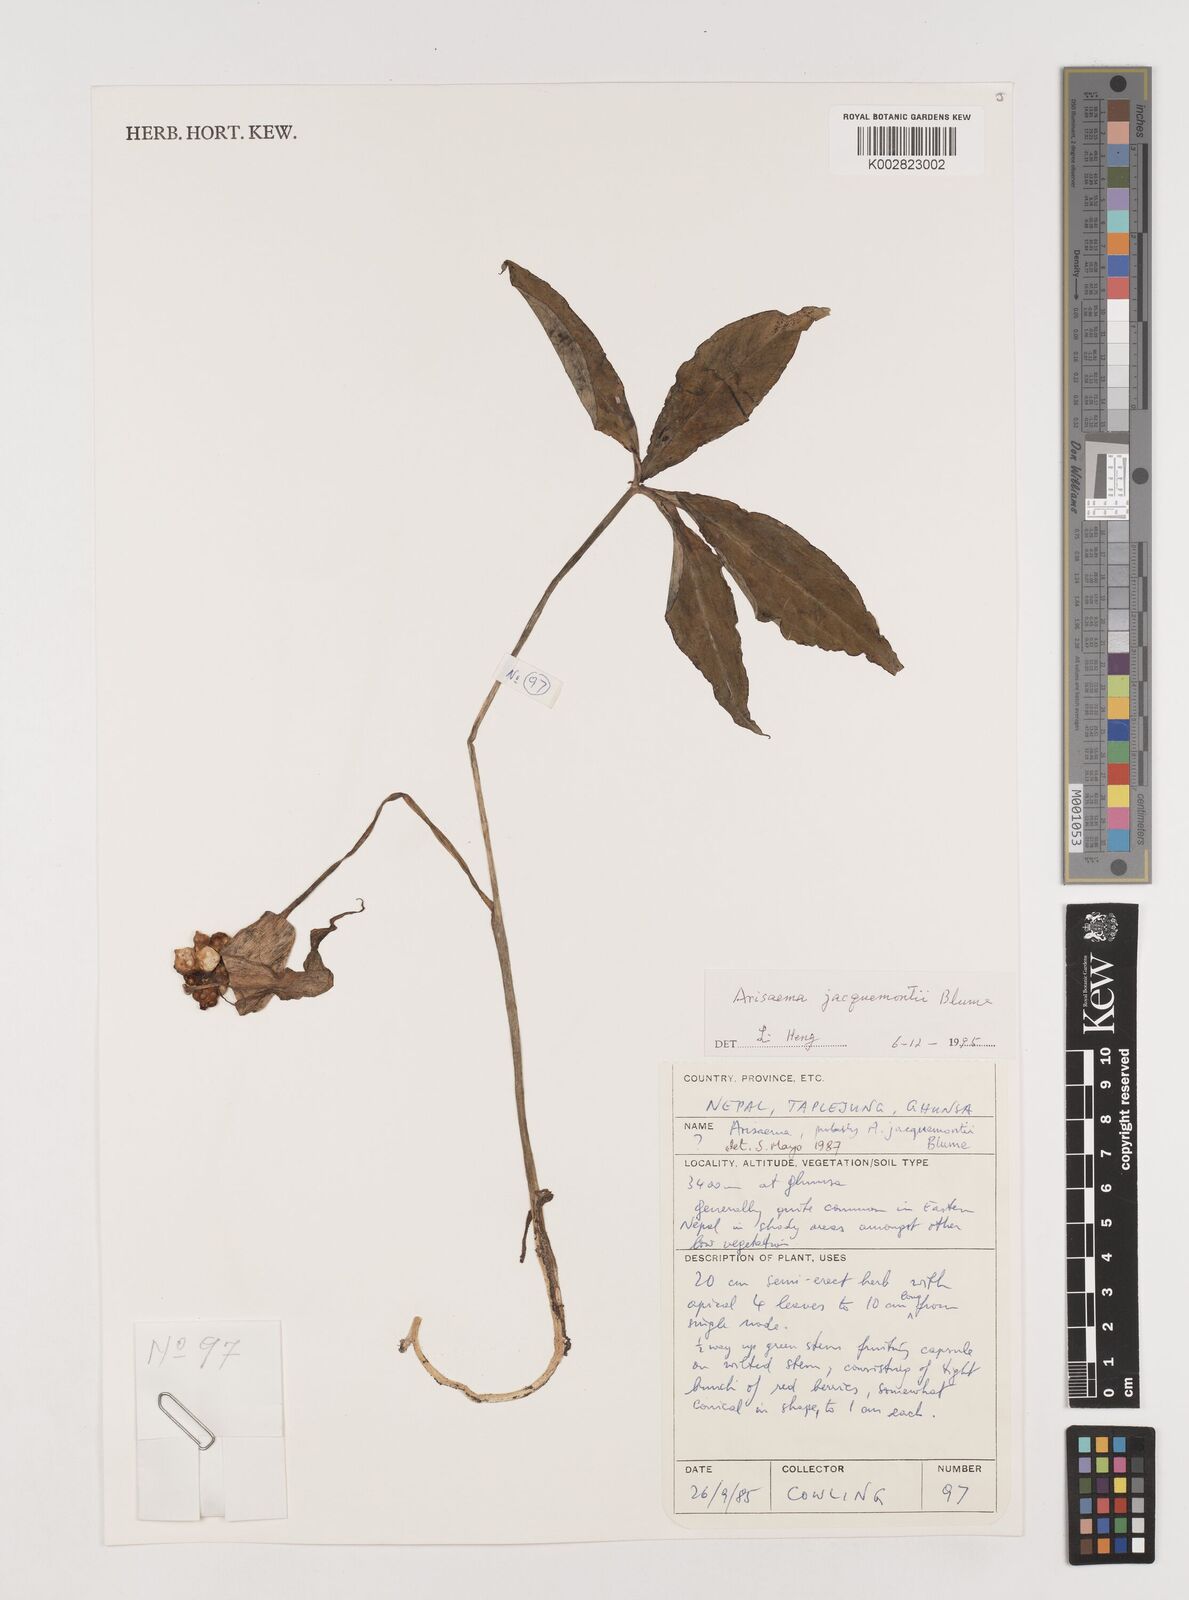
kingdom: Plantae
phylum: Tracheophyta
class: Liliopsida
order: Alismatales
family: Araceae
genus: Arisaema
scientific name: Arisaema jacquemontii
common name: Jacquemont's cobra-lily
